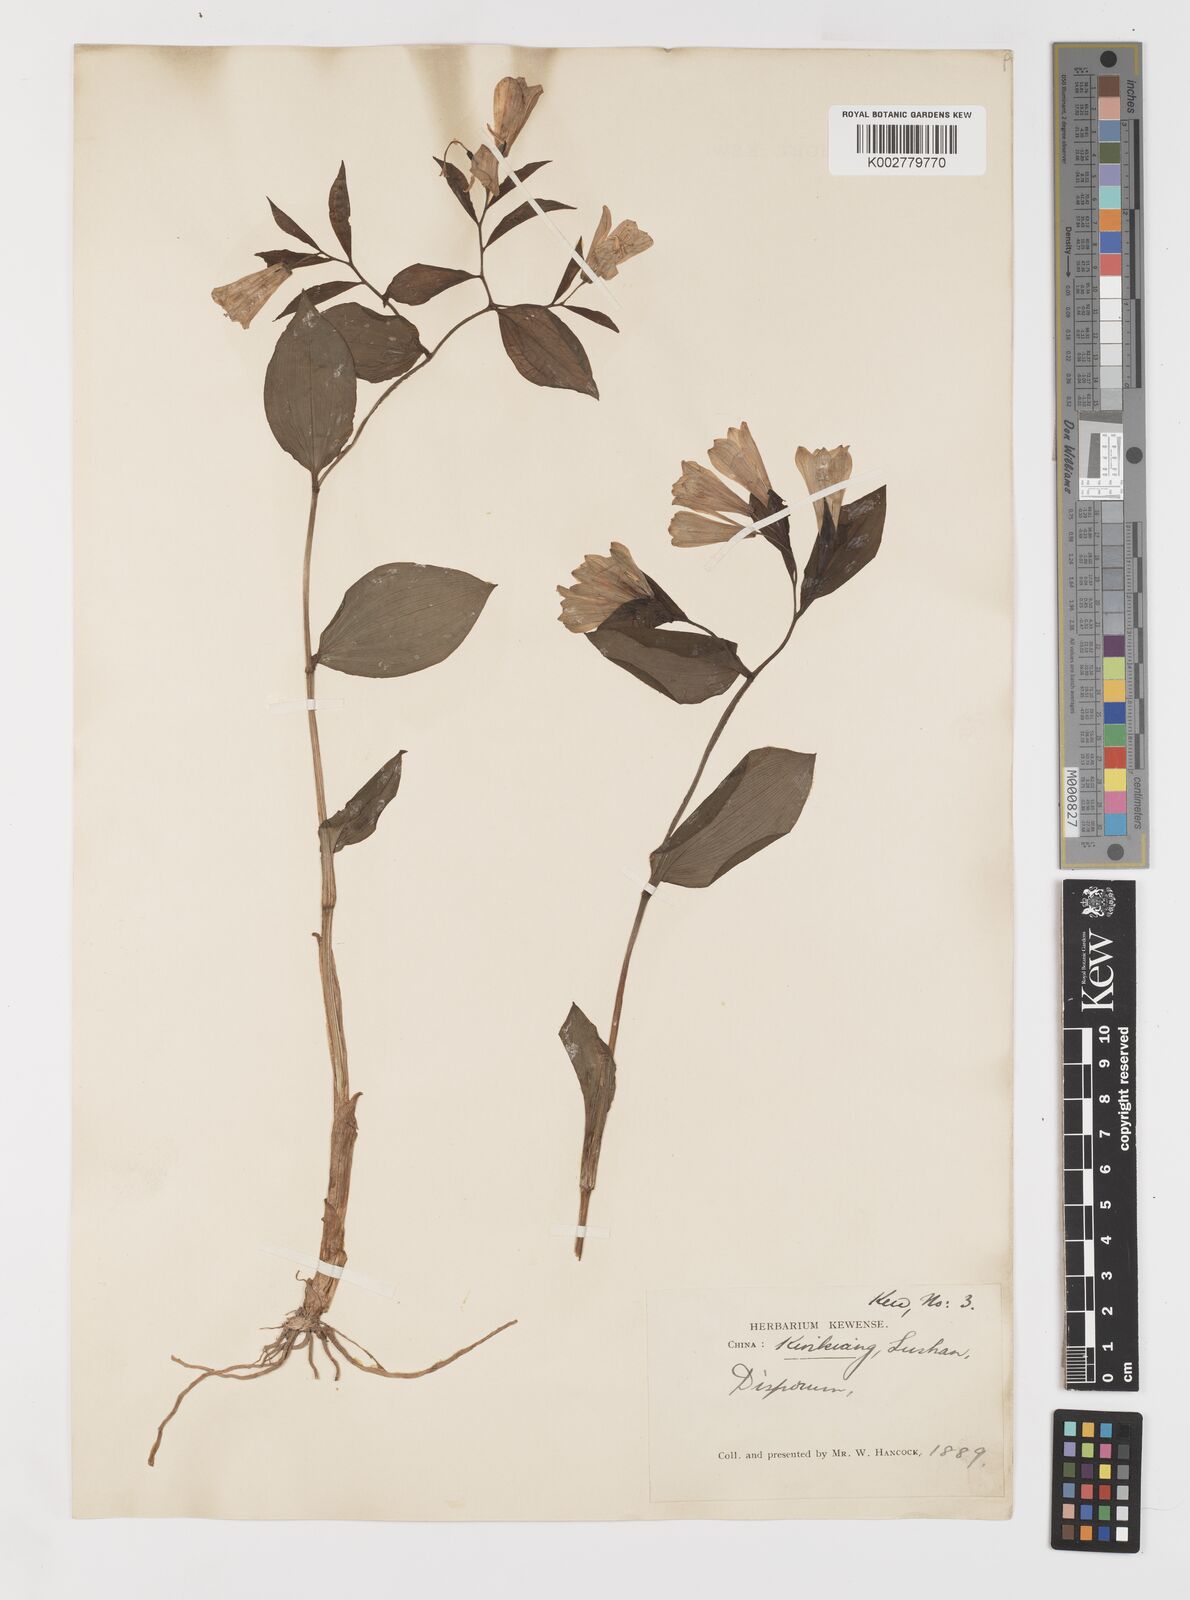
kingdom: Plantae
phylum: Tracheophyta
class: Liliopsida
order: Liliales
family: Colchicaceae
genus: Disporum
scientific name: Disporum sessile
